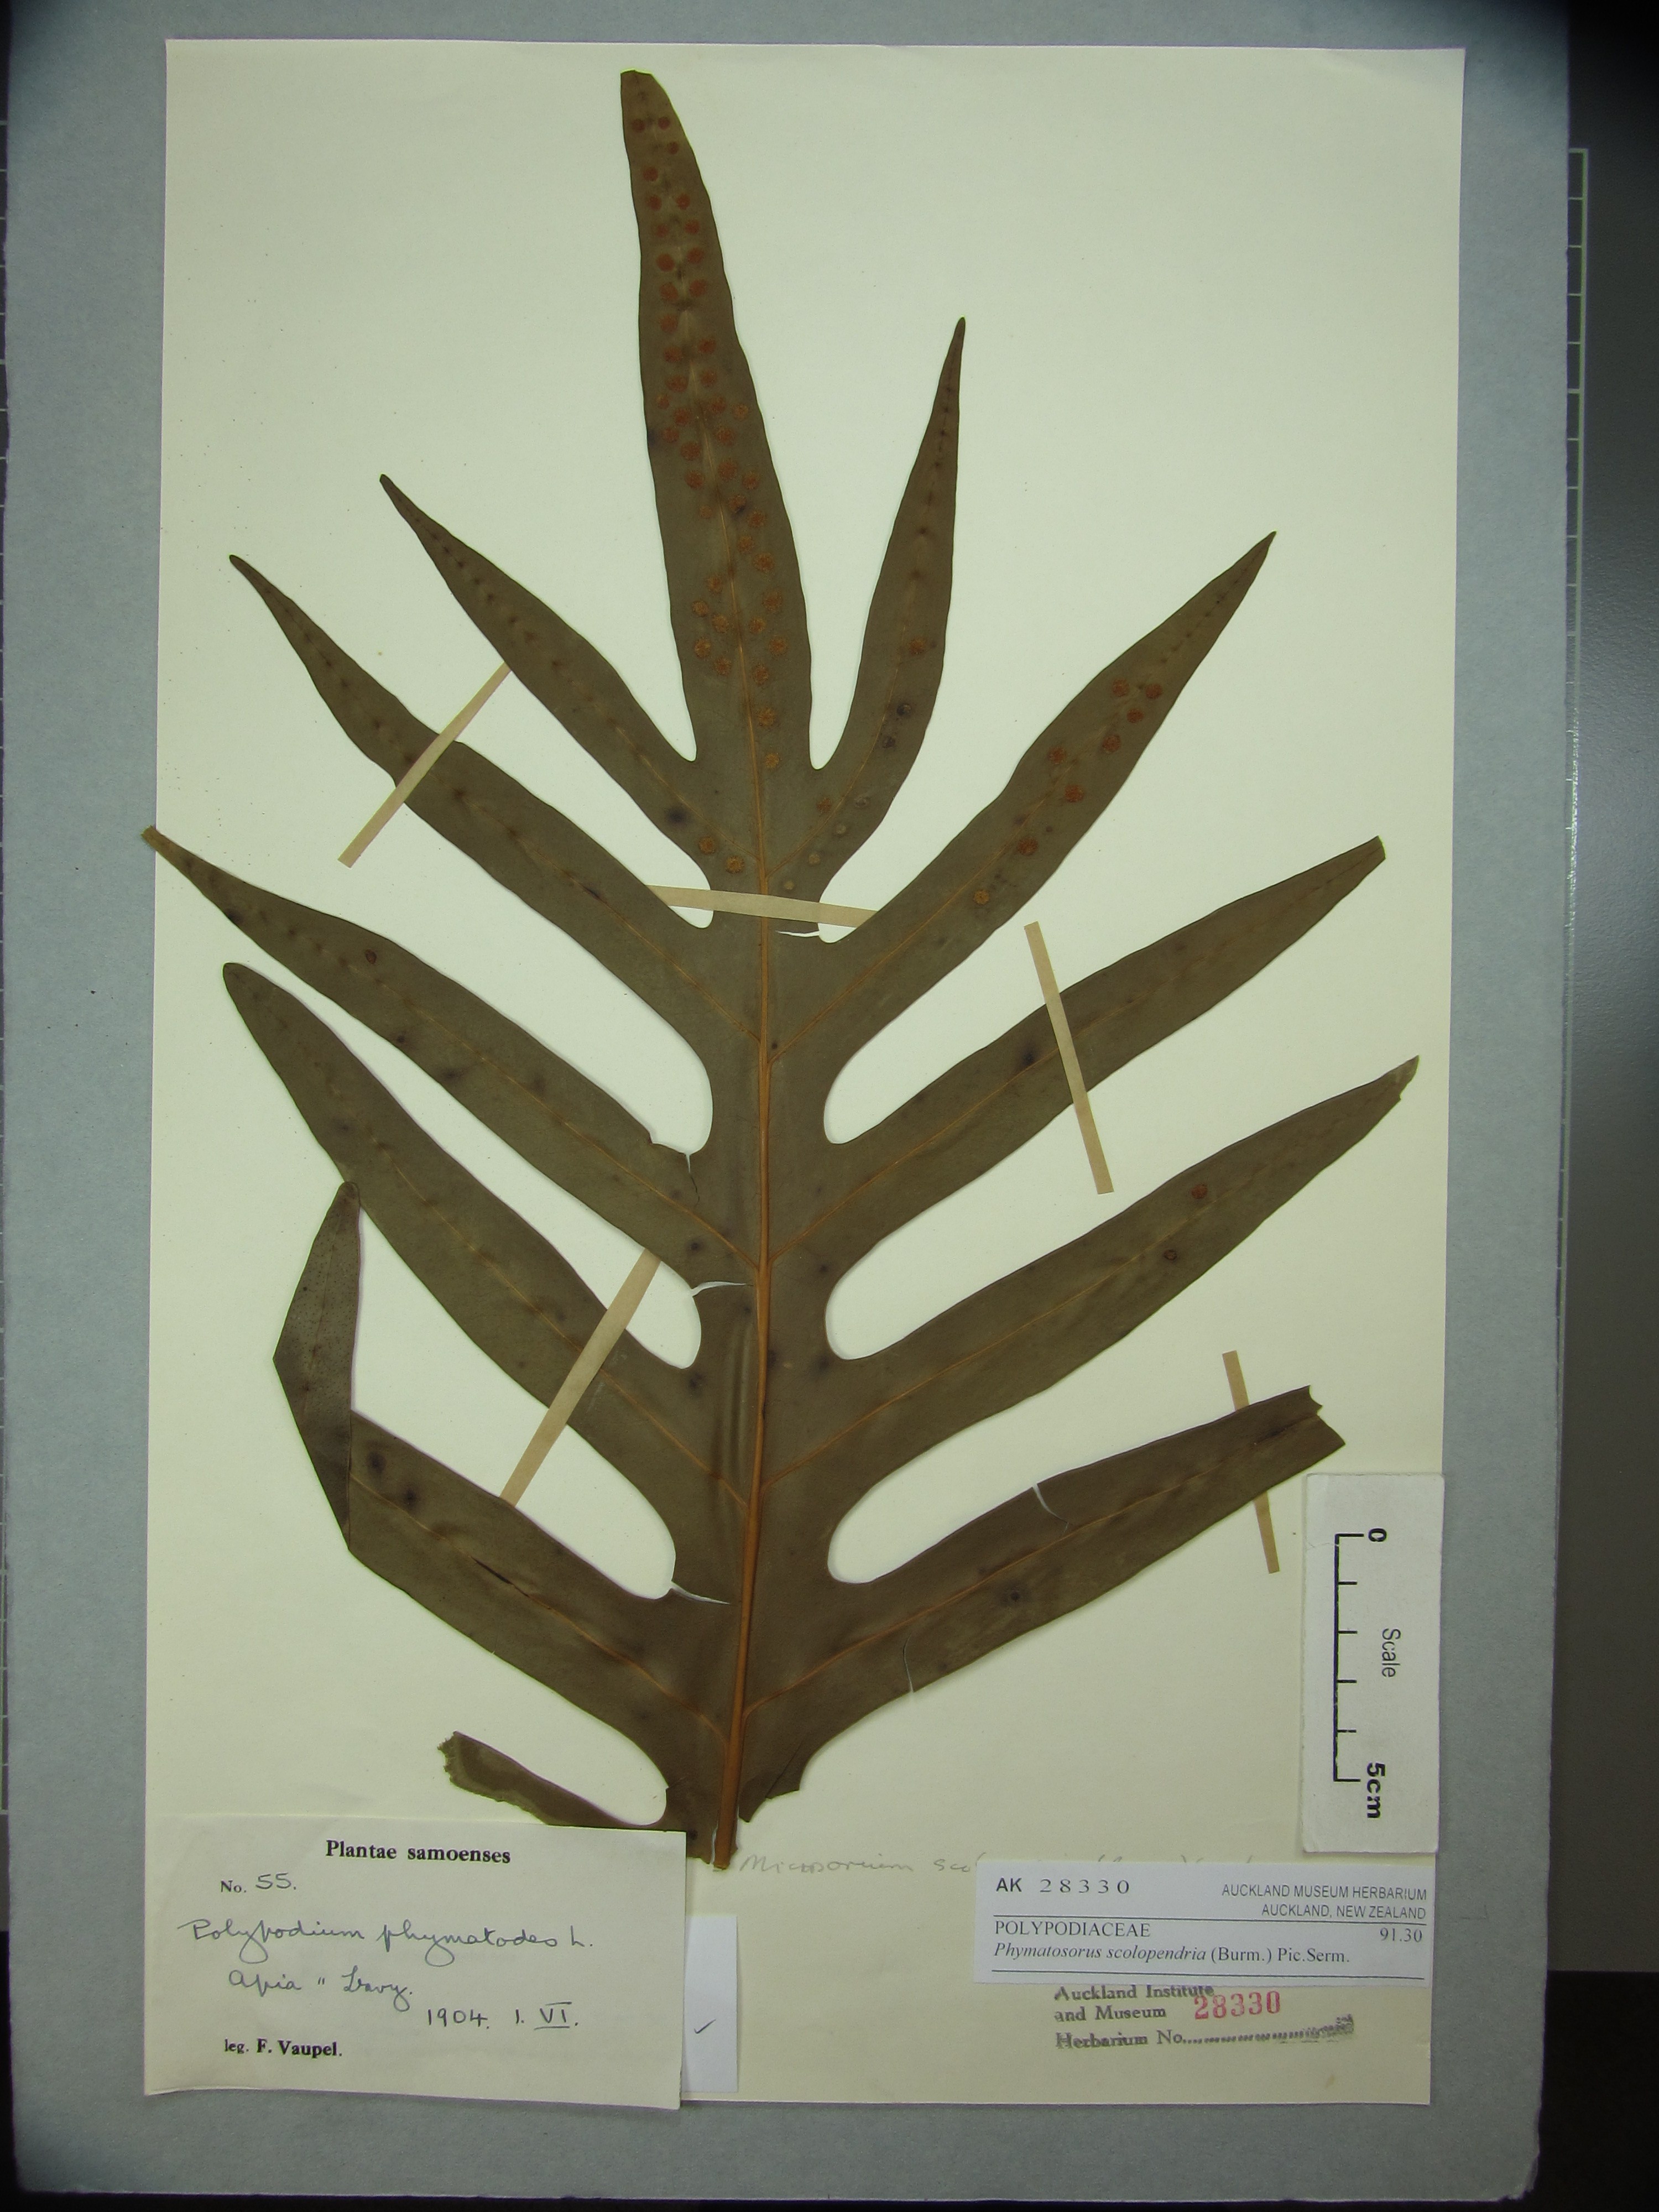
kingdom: Plantae
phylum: Tracheophyta
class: Polypodiopsida
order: Polypodiales
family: Polypodiaceae
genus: Microsorum
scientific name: Microsorum scolopendria
